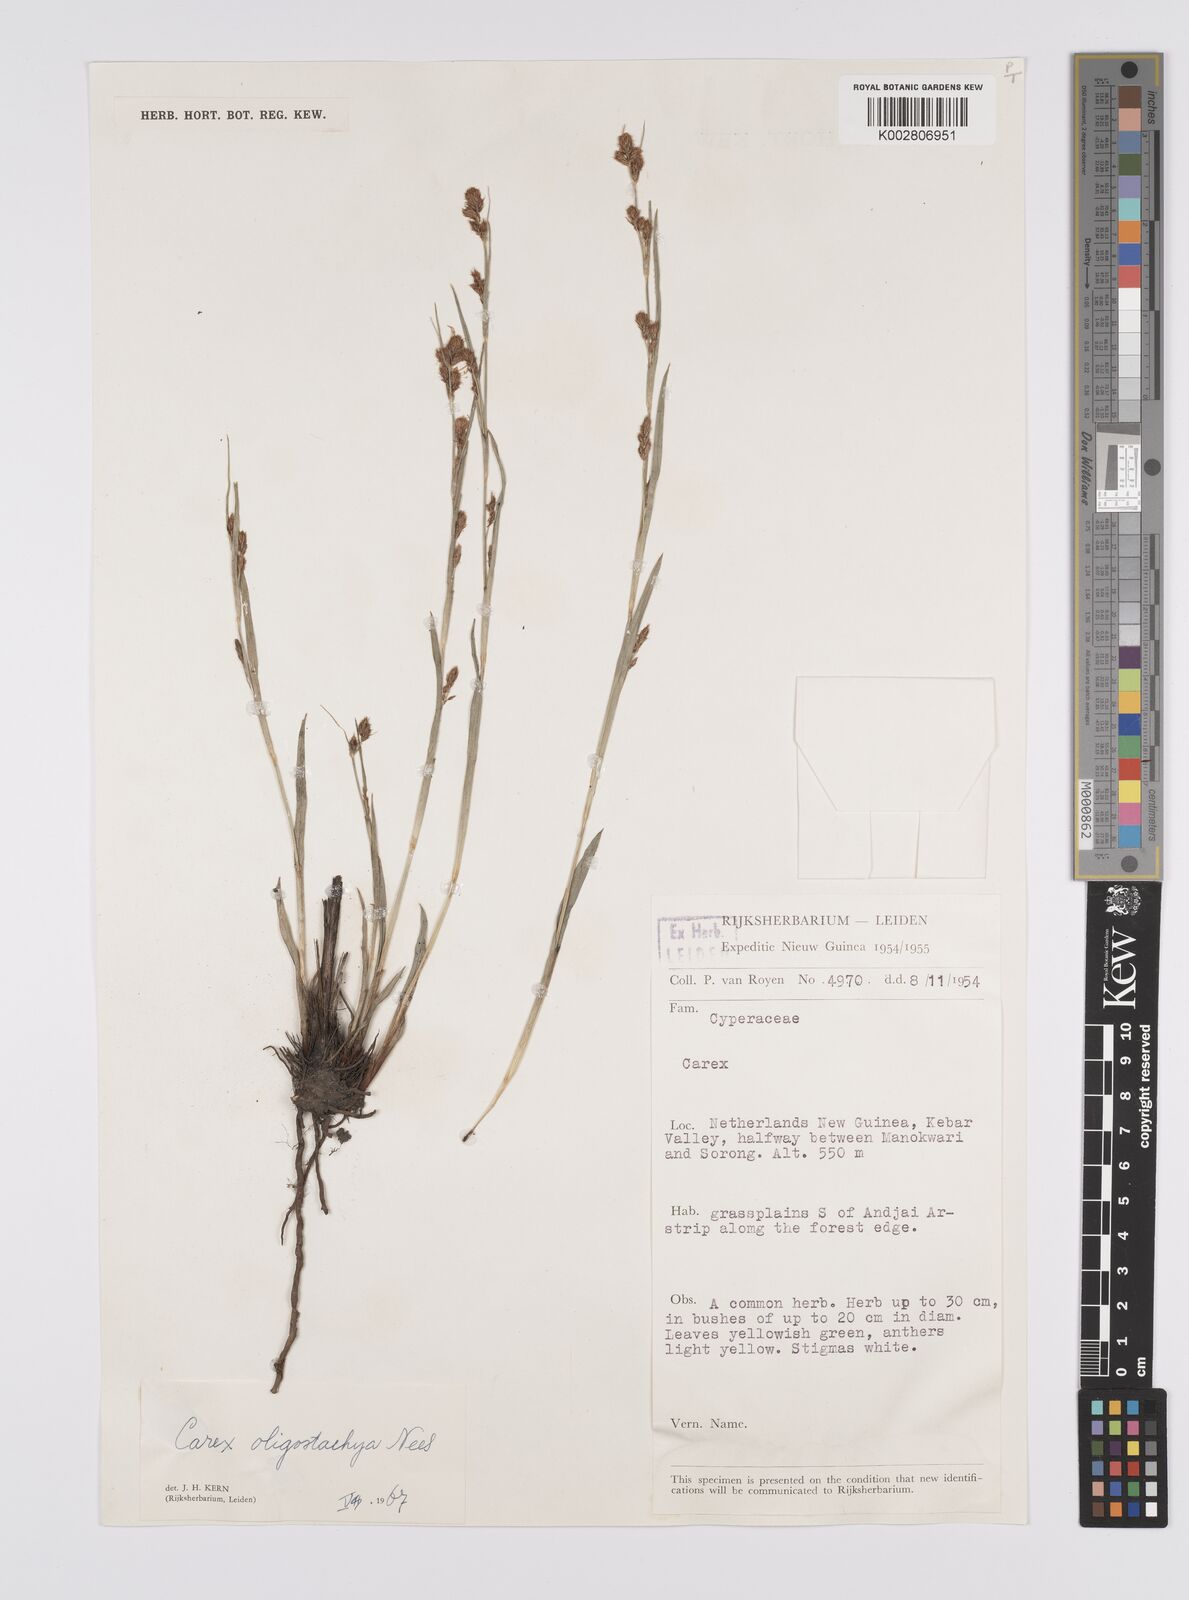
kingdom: Plantae
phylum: Tracheophyta
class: Liliopsida
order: Poales
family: Cyperaceae
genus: Carex
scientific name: Carex oligostachya
